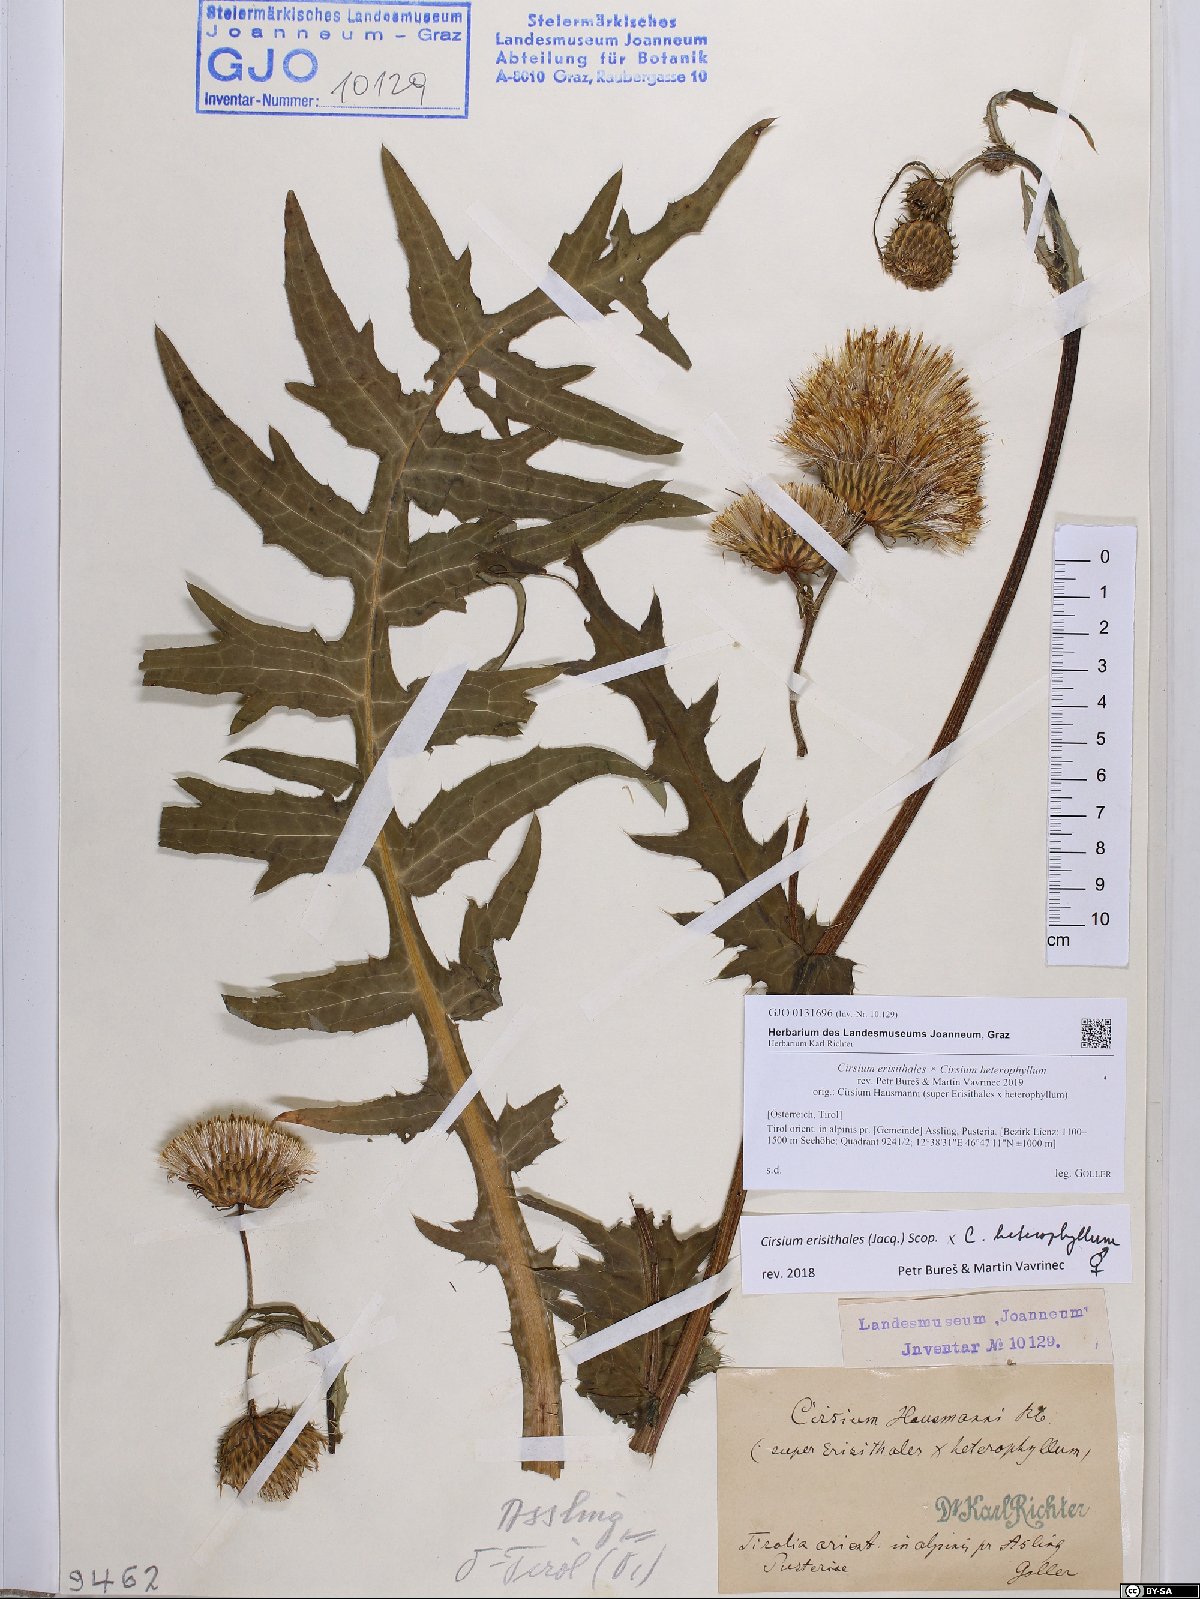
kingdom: Plantae
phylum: Tracheophyta
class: Magnoliopsida
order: Asterales
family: Asteraceae
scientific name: Asteraceae
